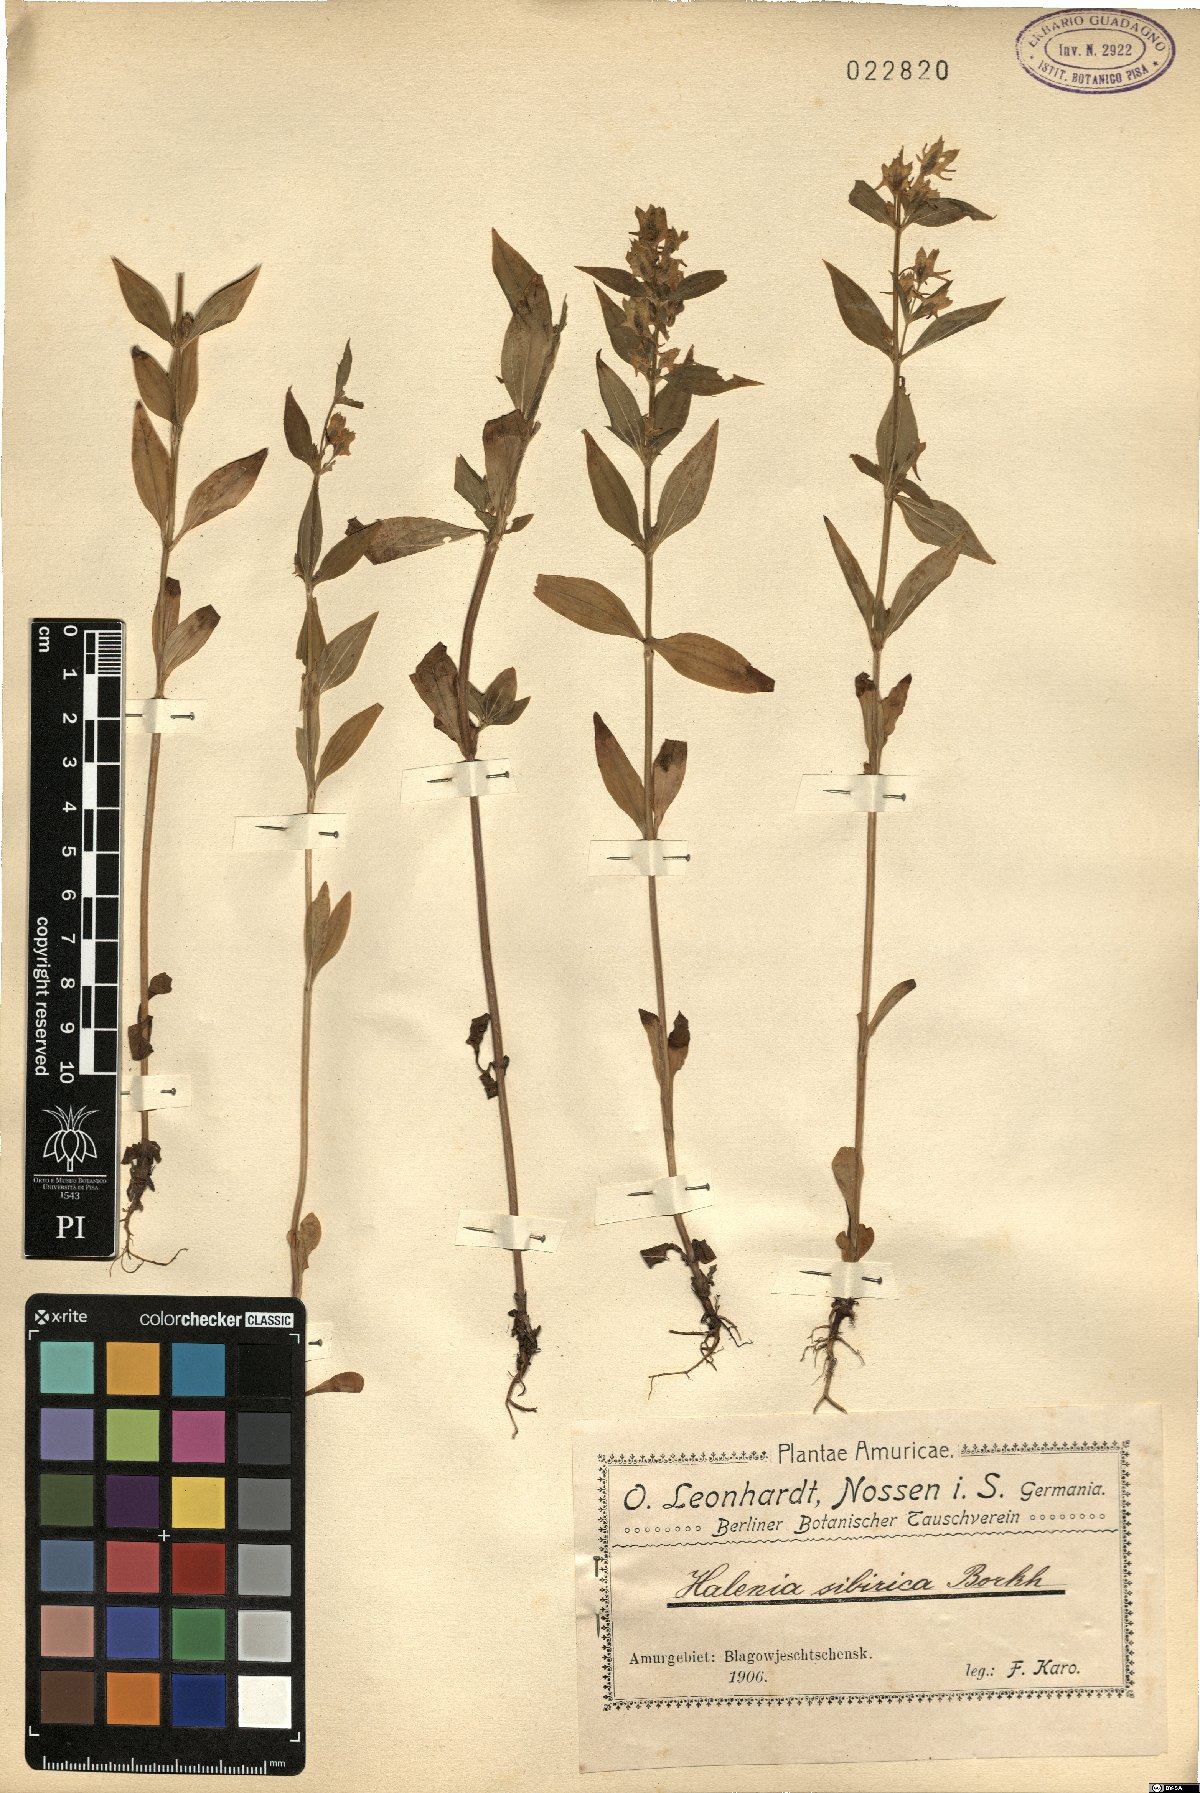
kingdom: Plantae
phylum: Tracheophyta
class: Magnoliopsida
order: Gentianales
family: Gentianaceae
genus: Halenia
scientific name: Halenia corniculata
